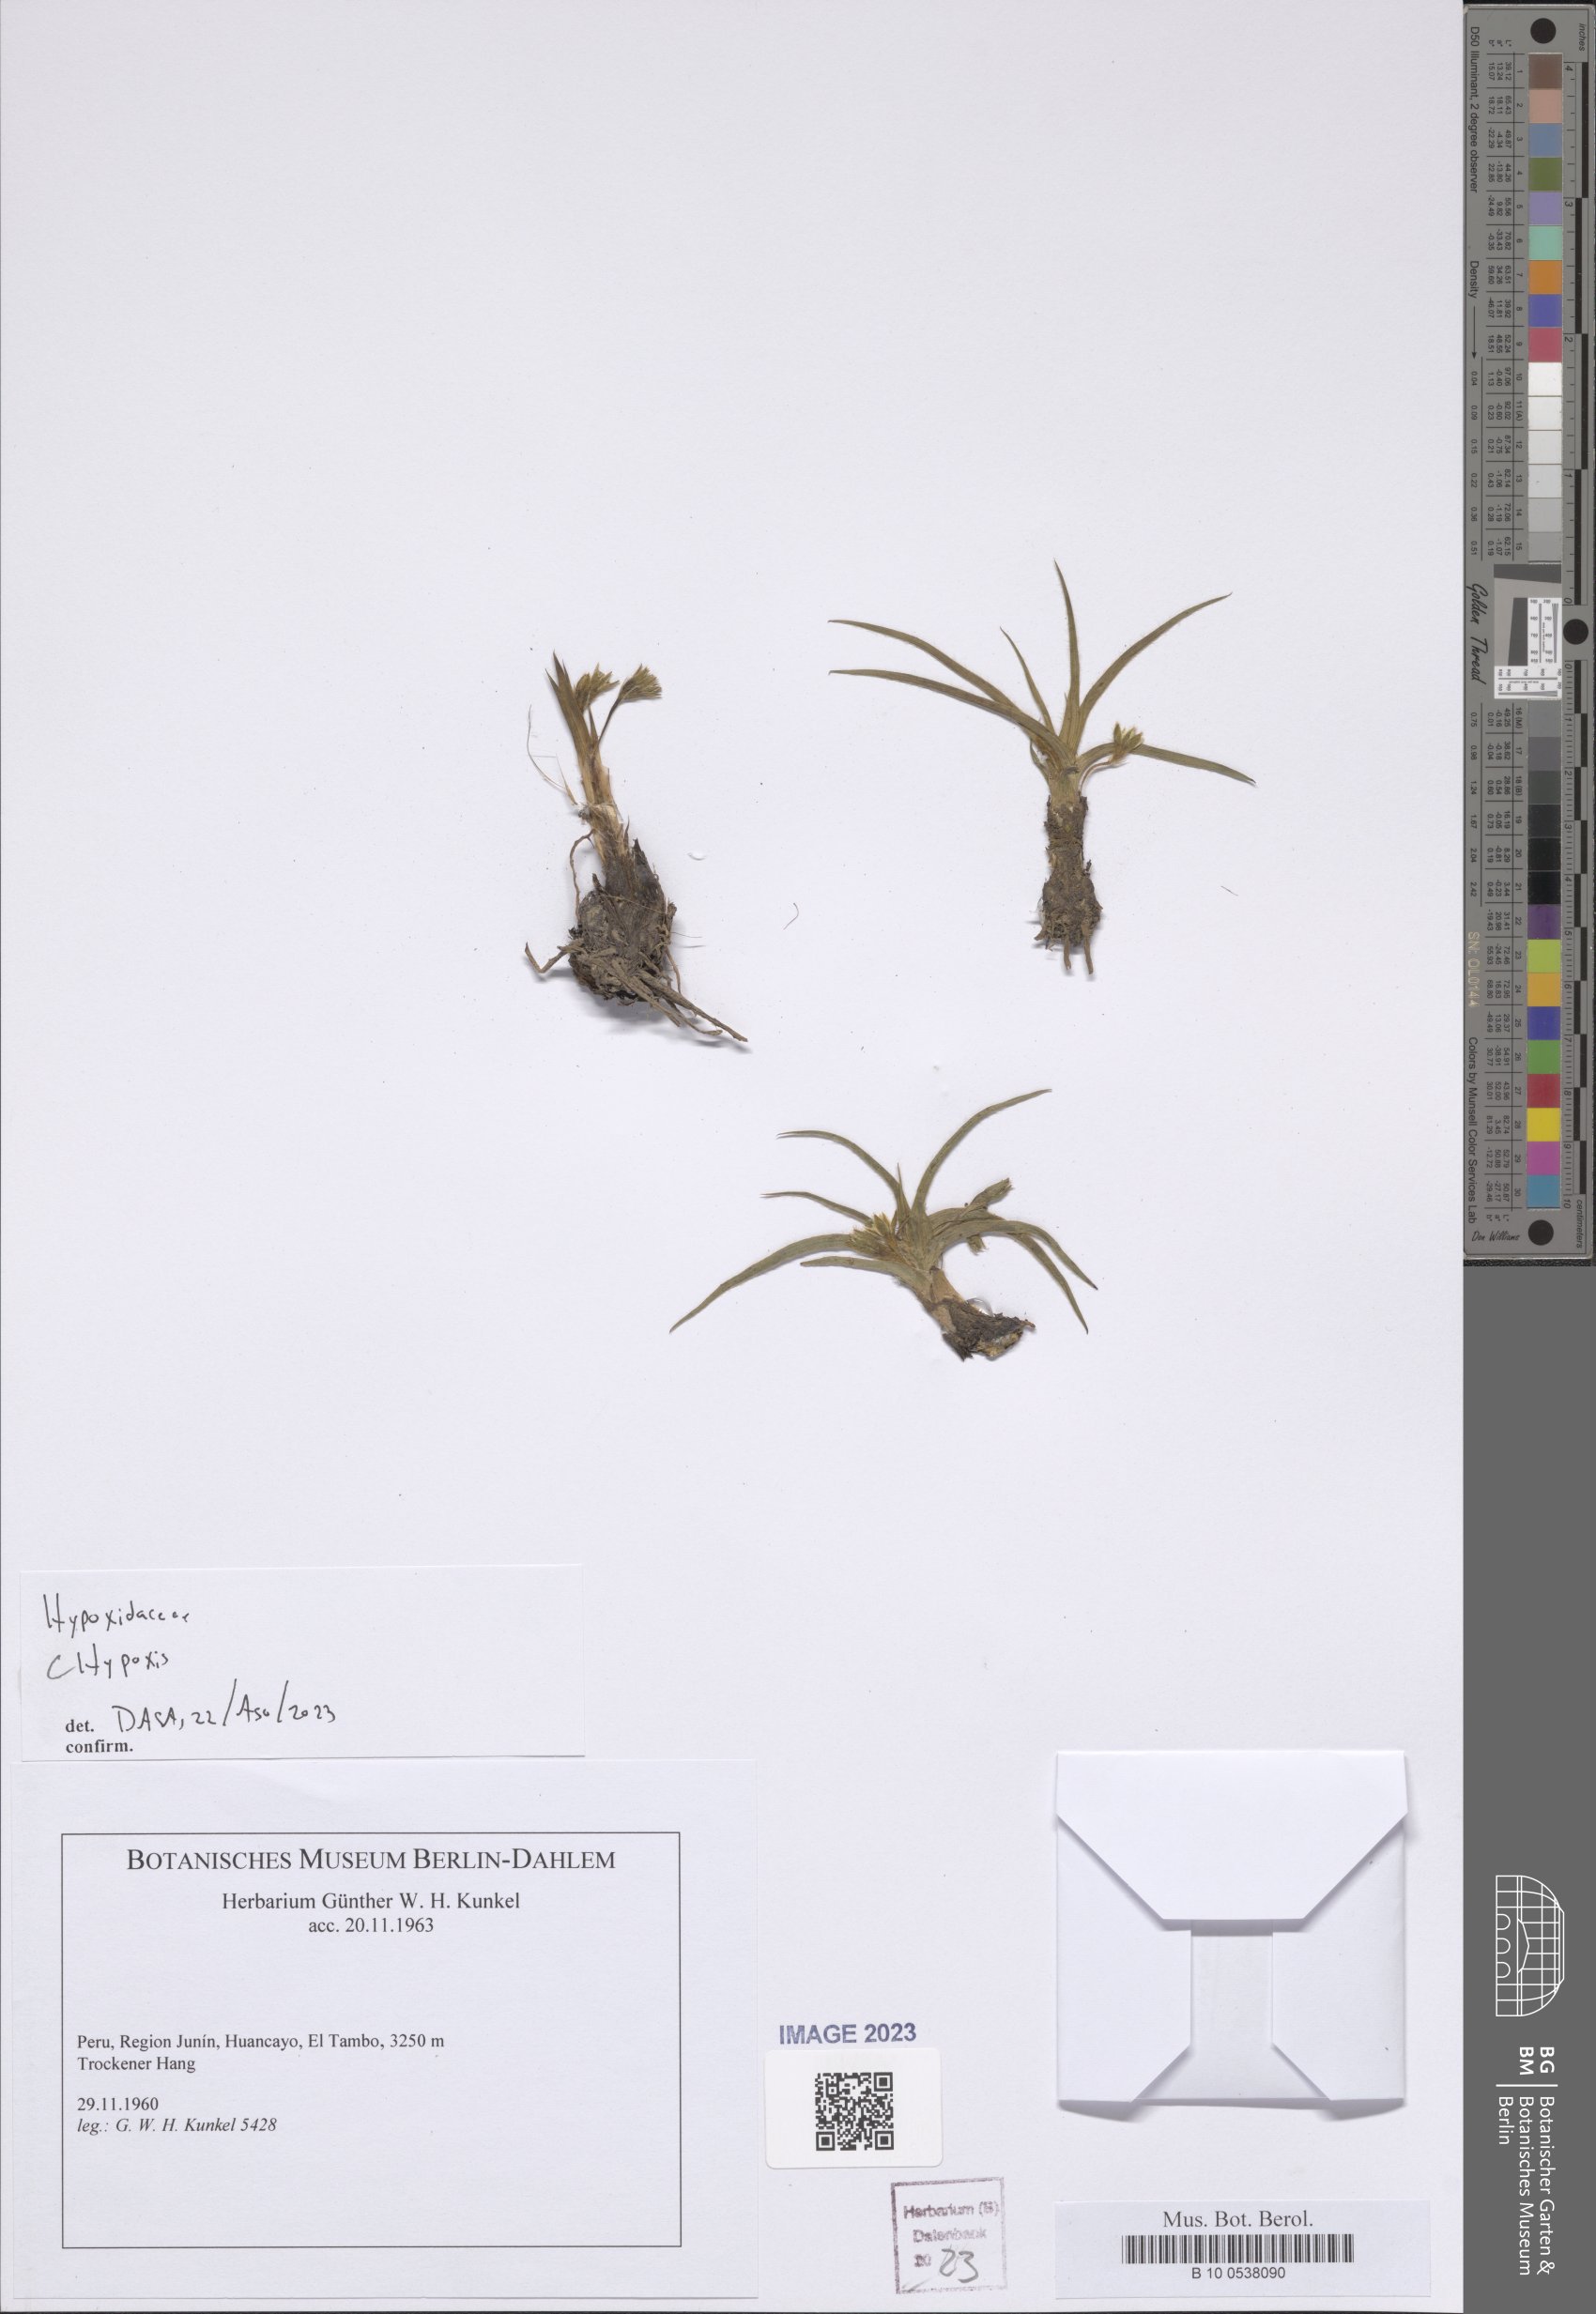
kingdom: Plantae
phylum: Tracheophyta
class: Liliopsida
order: Asparagales
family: Hypoxidaceae
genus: Hypoxis
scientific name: Hypoxis
